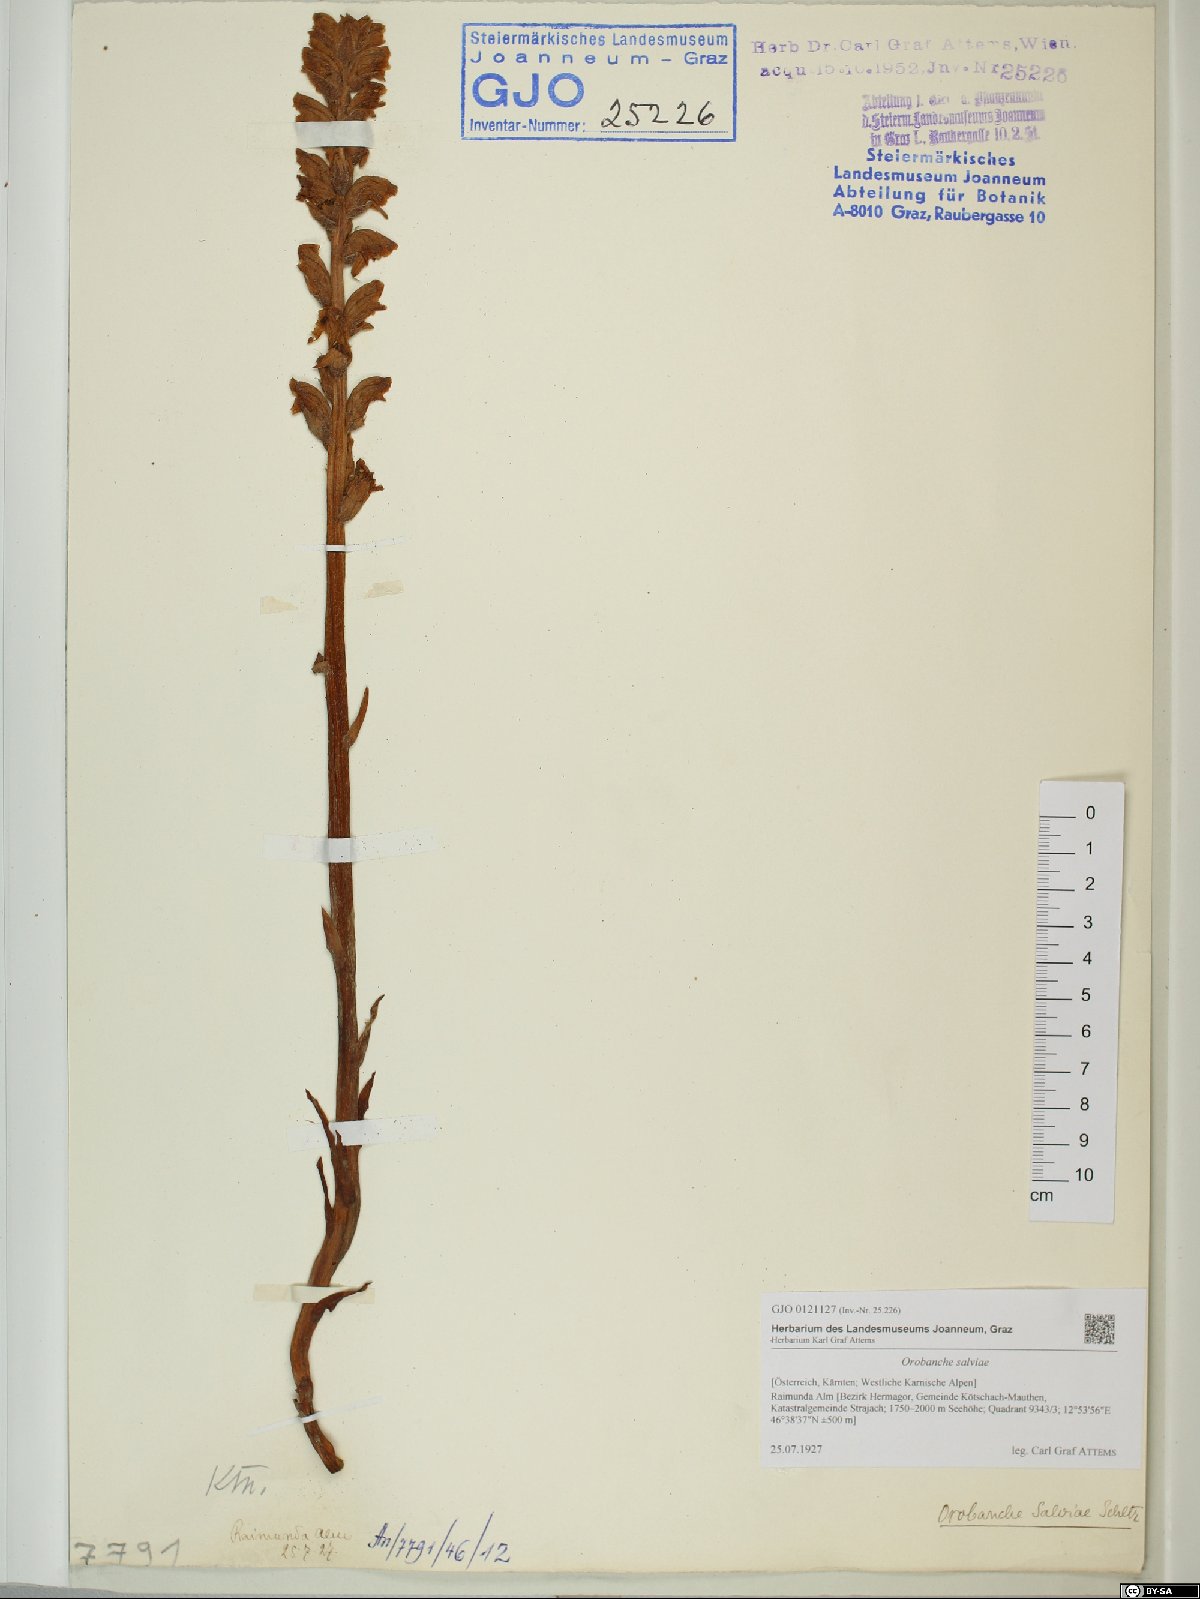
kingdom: Plantae
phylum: Tracheophyta
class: Magnoliopsida
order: Lamiales
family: Orobanchaceae
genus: Orobanche
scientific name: Orobanche salviae
